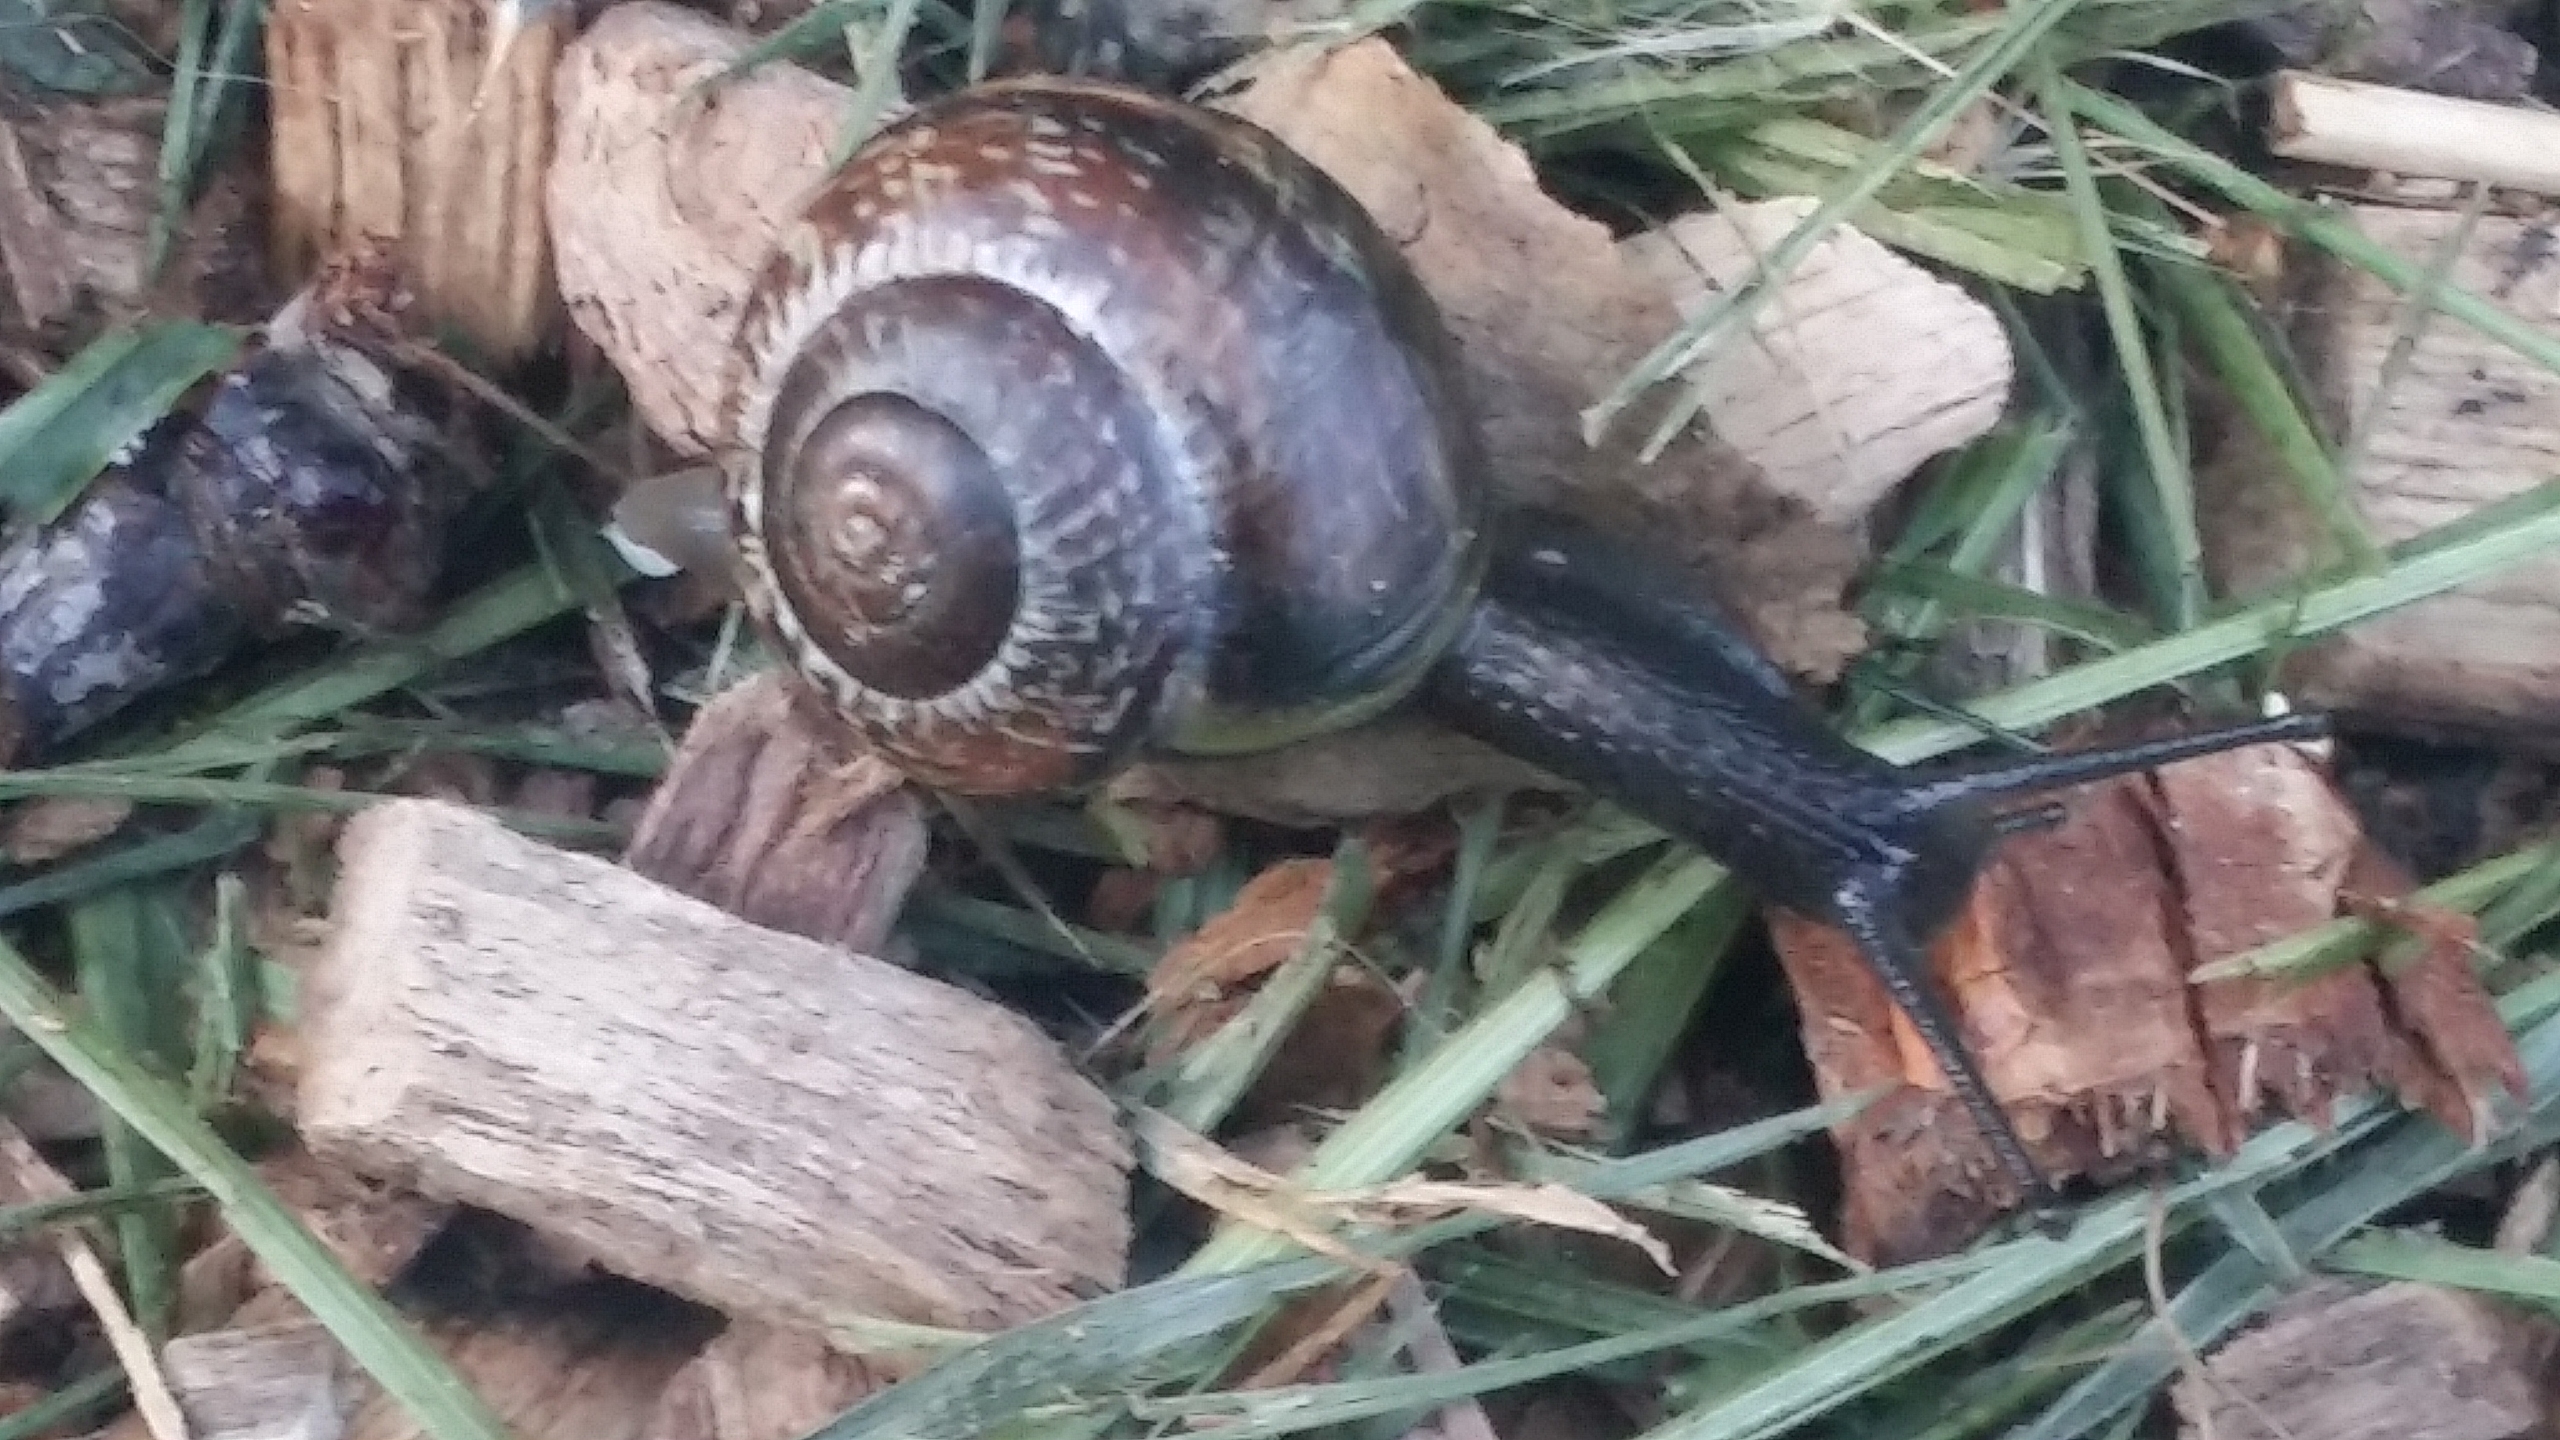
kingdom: Animalia
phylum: Mollusca
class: Gastropoda
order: Stylommatophora
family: Helicidae
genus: Arianta
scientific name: Arianta arbustorum
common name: Kratsnegl
